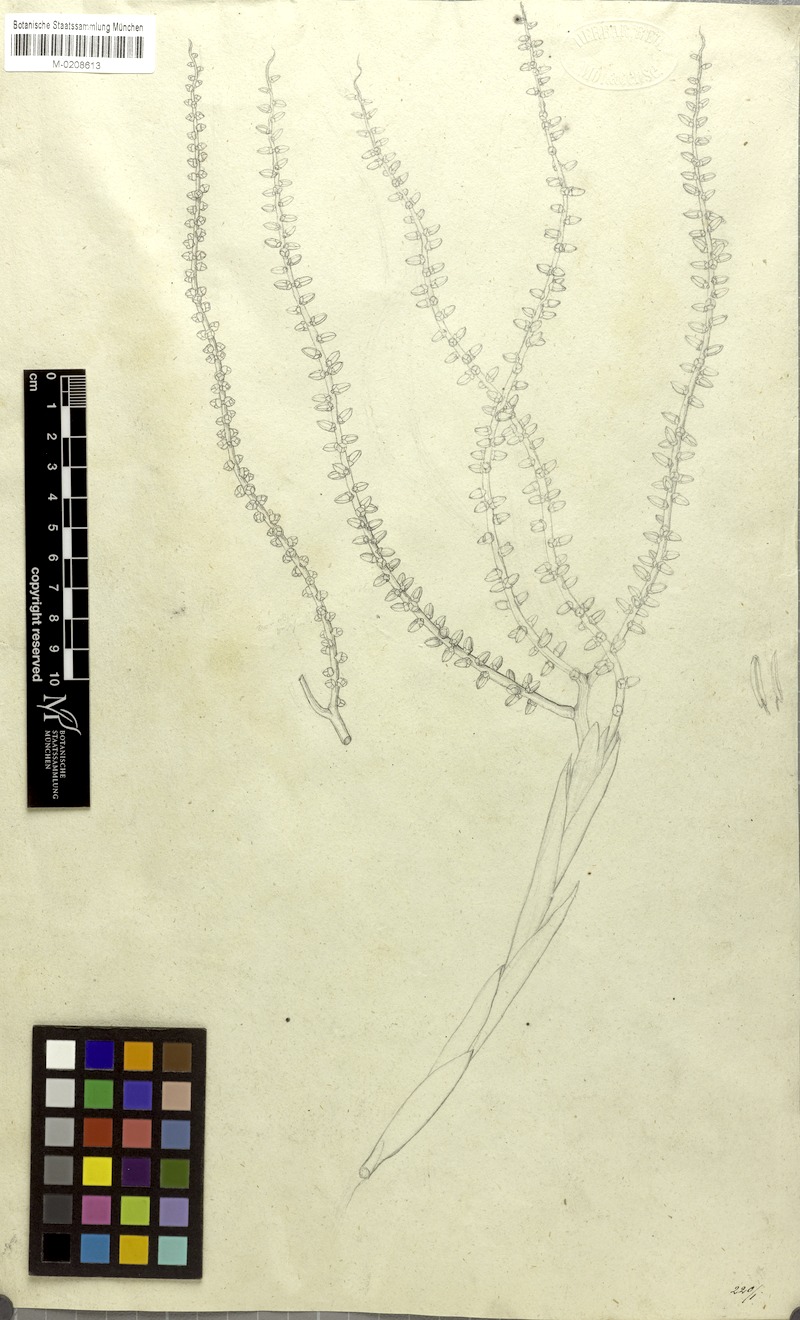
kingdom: Plantae
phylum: Tracheophyta
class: Liliopsida
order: Arecales
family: Arecaceae
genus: Arenga
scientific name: Arenga porphyrocarpa
